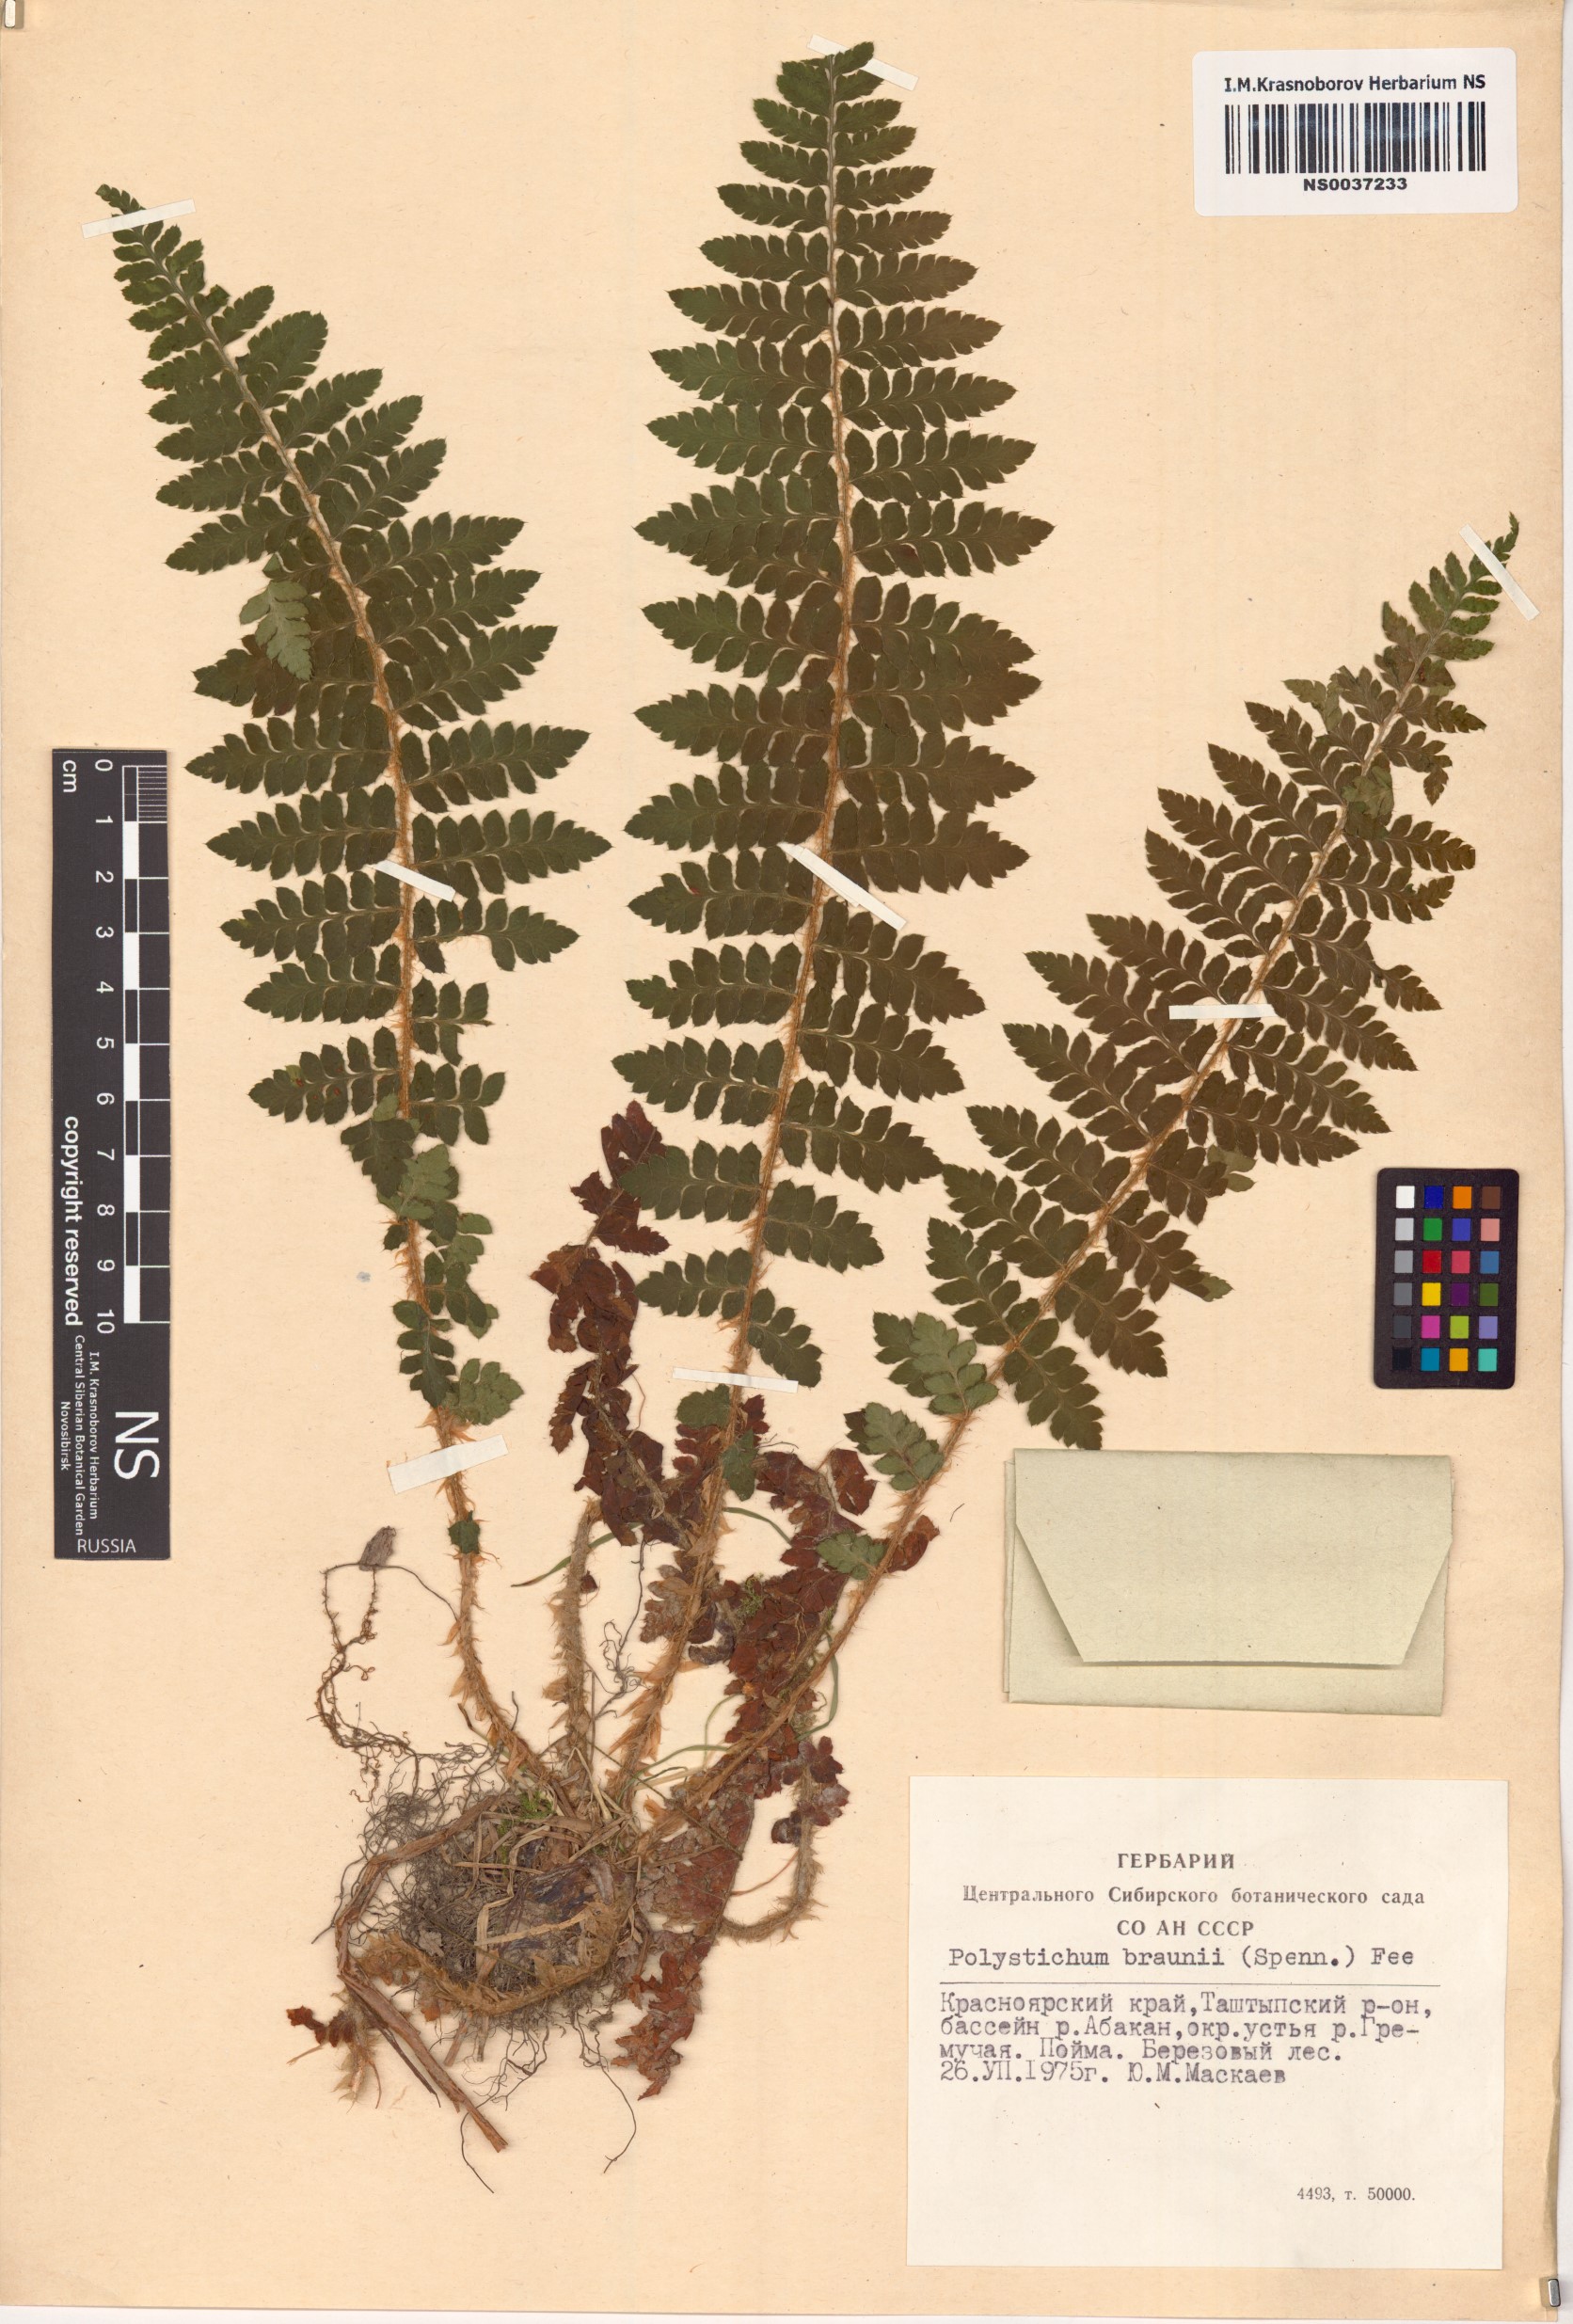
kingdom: Plantae
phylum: Tracheophyta
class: Polypodiopsida
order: Polypodiales
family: Dryopteridaceae
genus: Polystichum
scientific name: Polystichum braunii
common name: Braun's holly fern
